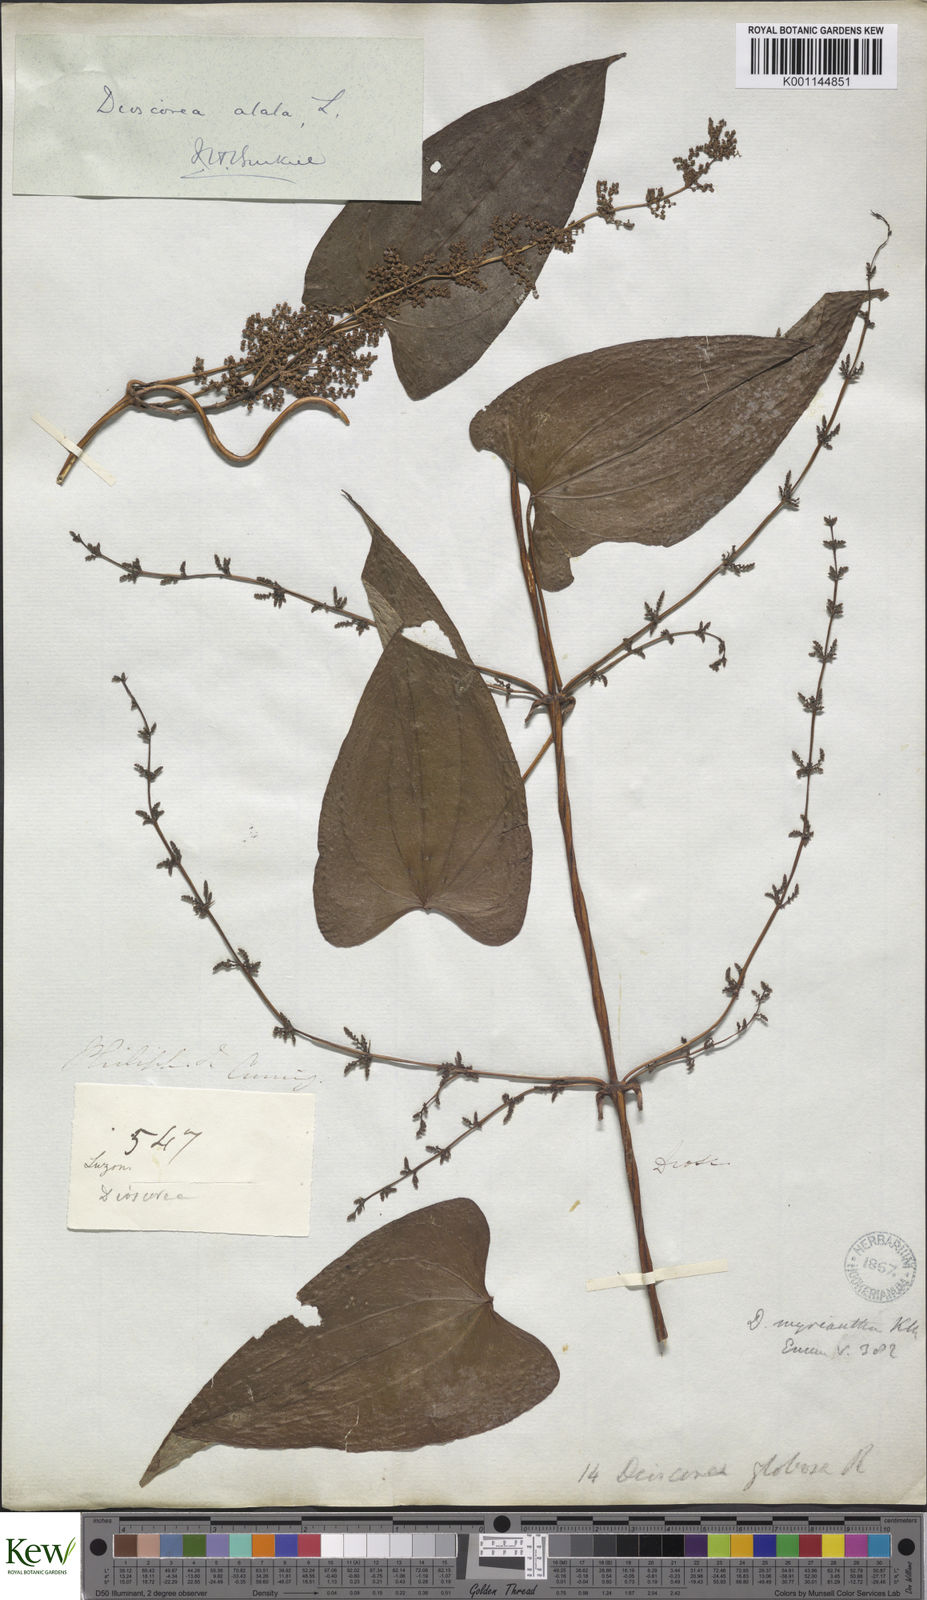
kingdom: Plantae
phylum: Tracheophyta
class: Liliopsida
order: Dioscoreales
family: Dioscoreaceae
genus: Dioscorea
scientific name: Dioscorea alata
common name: Water yam
